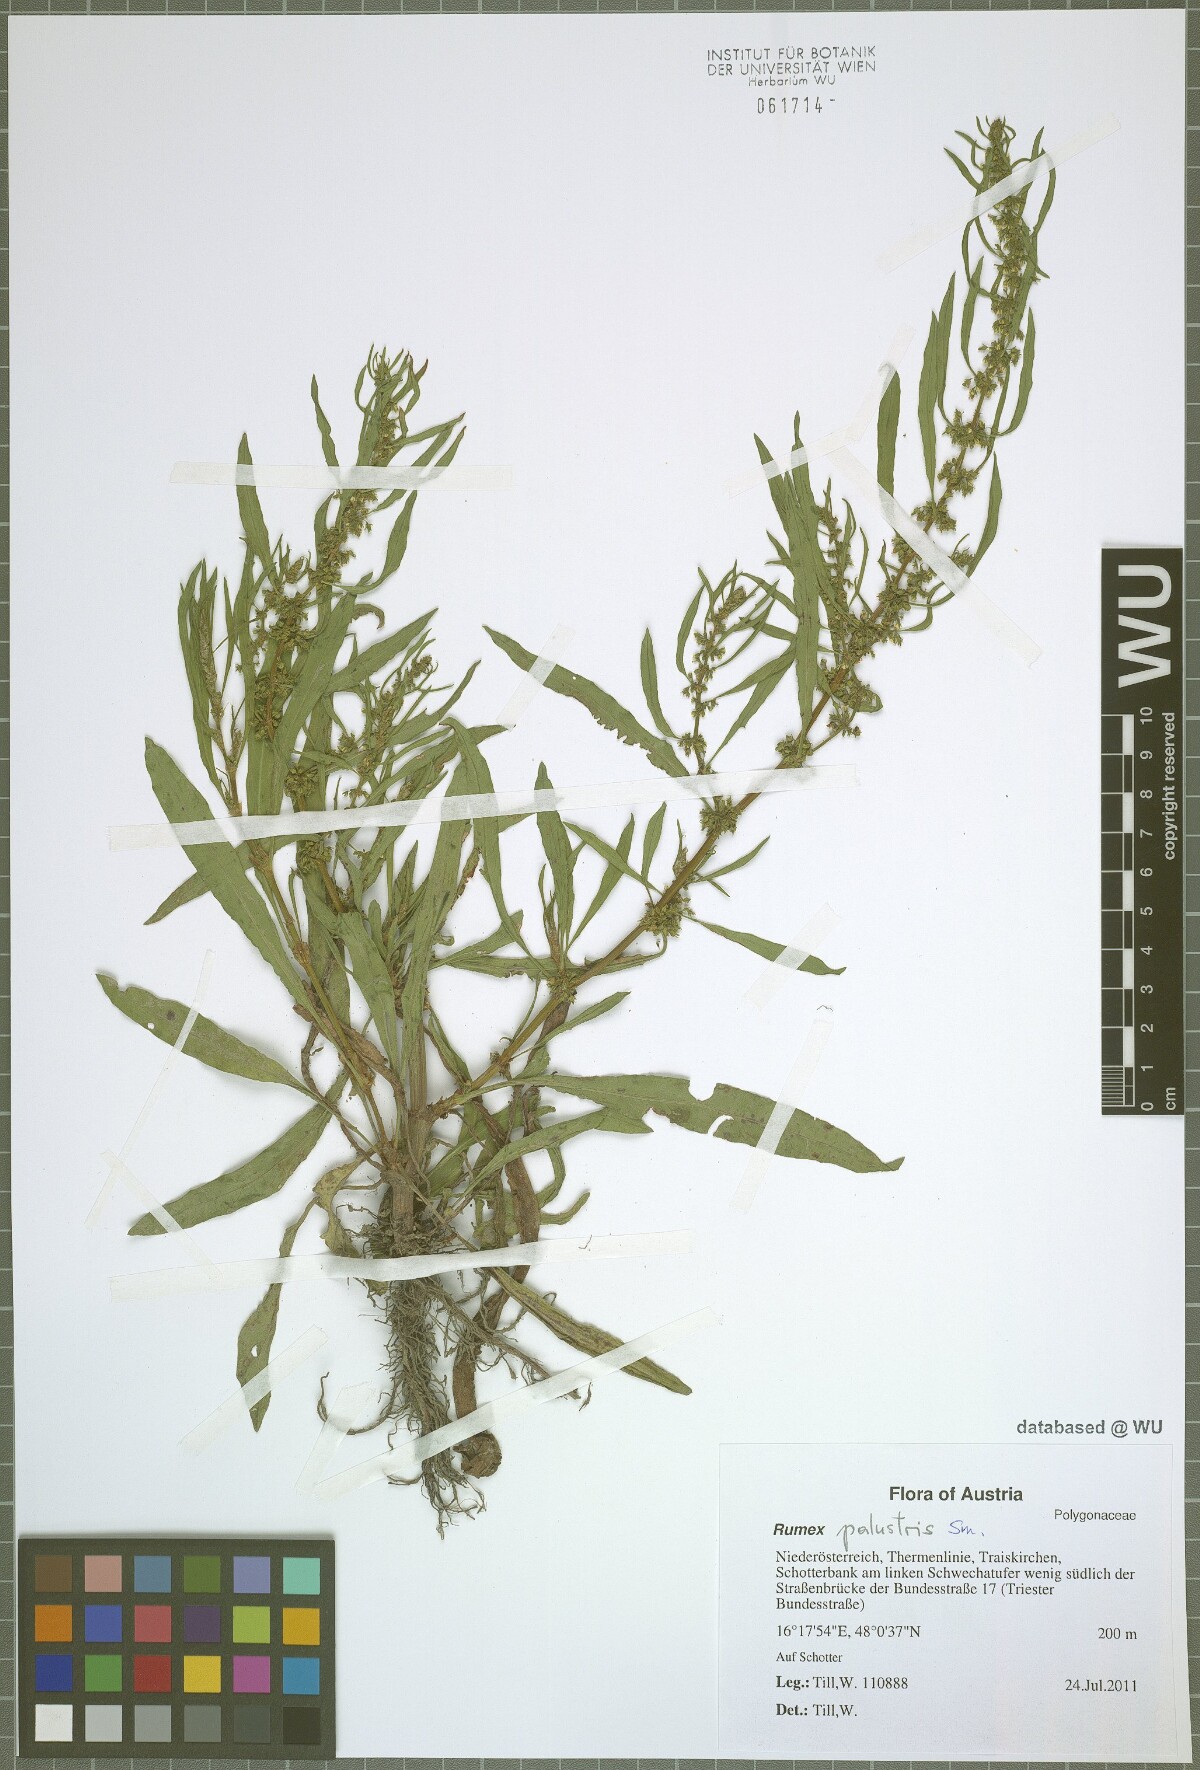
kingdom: Plantae
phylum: Tracheophyta
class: Magnoliopsida
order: Caryophyllales
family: Polygonaceae
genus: Rumex
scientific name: Rumex palustris
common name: Marsh dock
